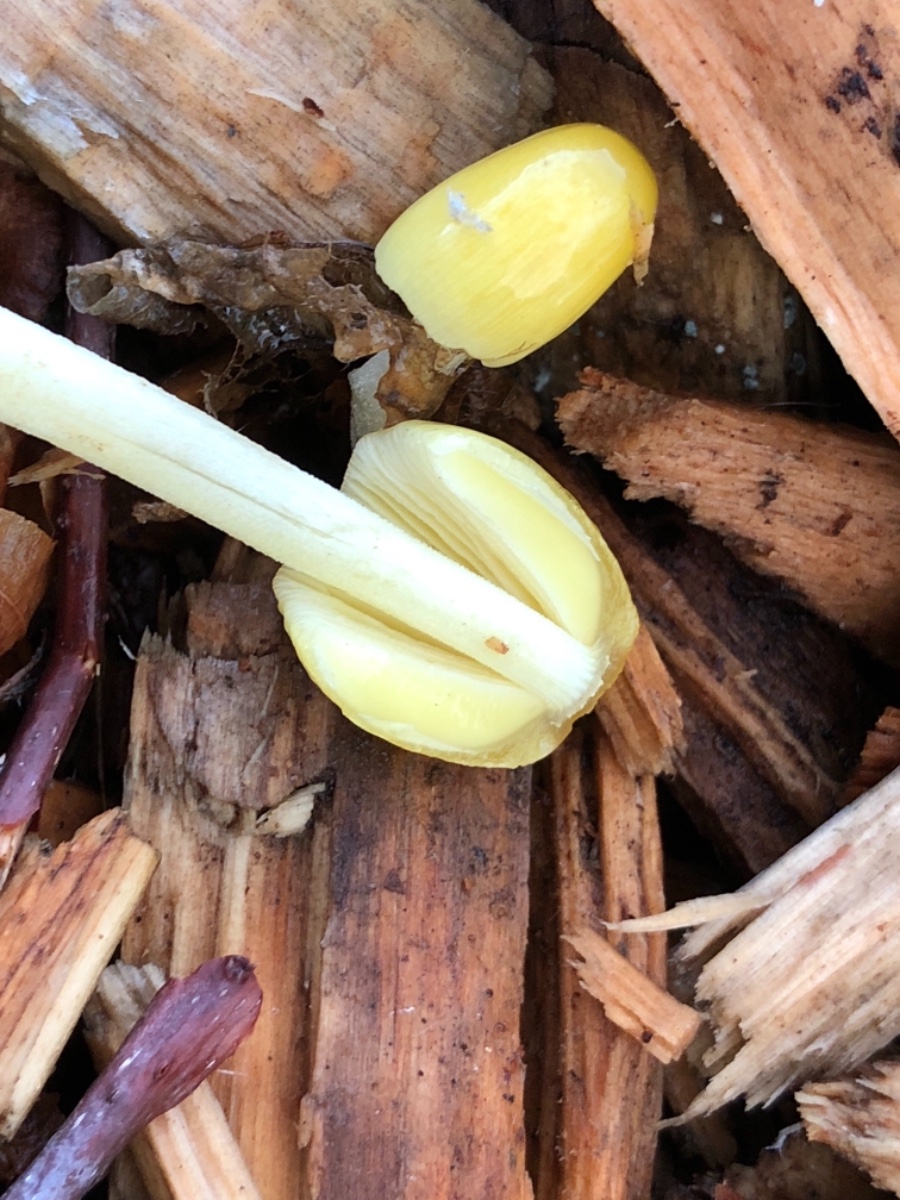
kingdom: Fungi
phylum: Basidiomycota
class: Agaricomycetes
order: Agaricales
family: Bolbitiaceae
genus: Bolbitius
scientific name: Bolbitius titubans
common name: almindelig gulhat
